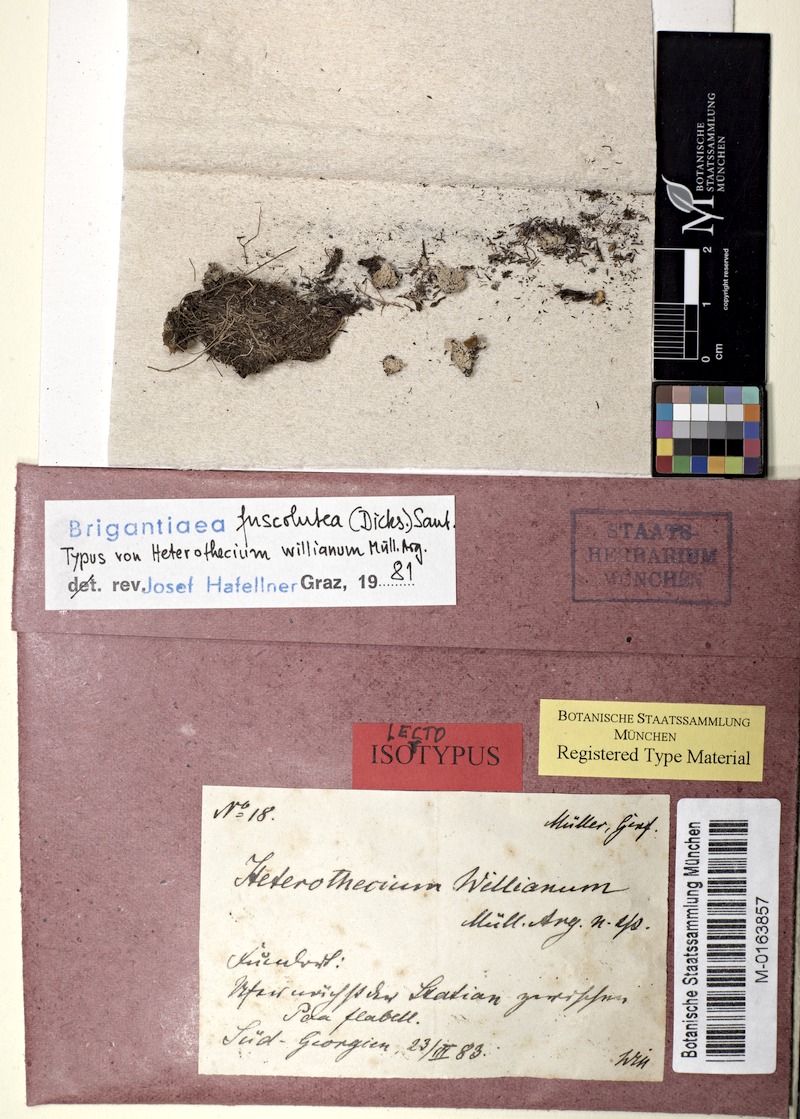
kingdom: Fungi
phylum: Ascomycota
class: Lecanoromycetes
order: Teloschistales
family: Brigantiaeaceae
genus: Brigantiaea
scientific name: Brigantiaea fuscolutea
